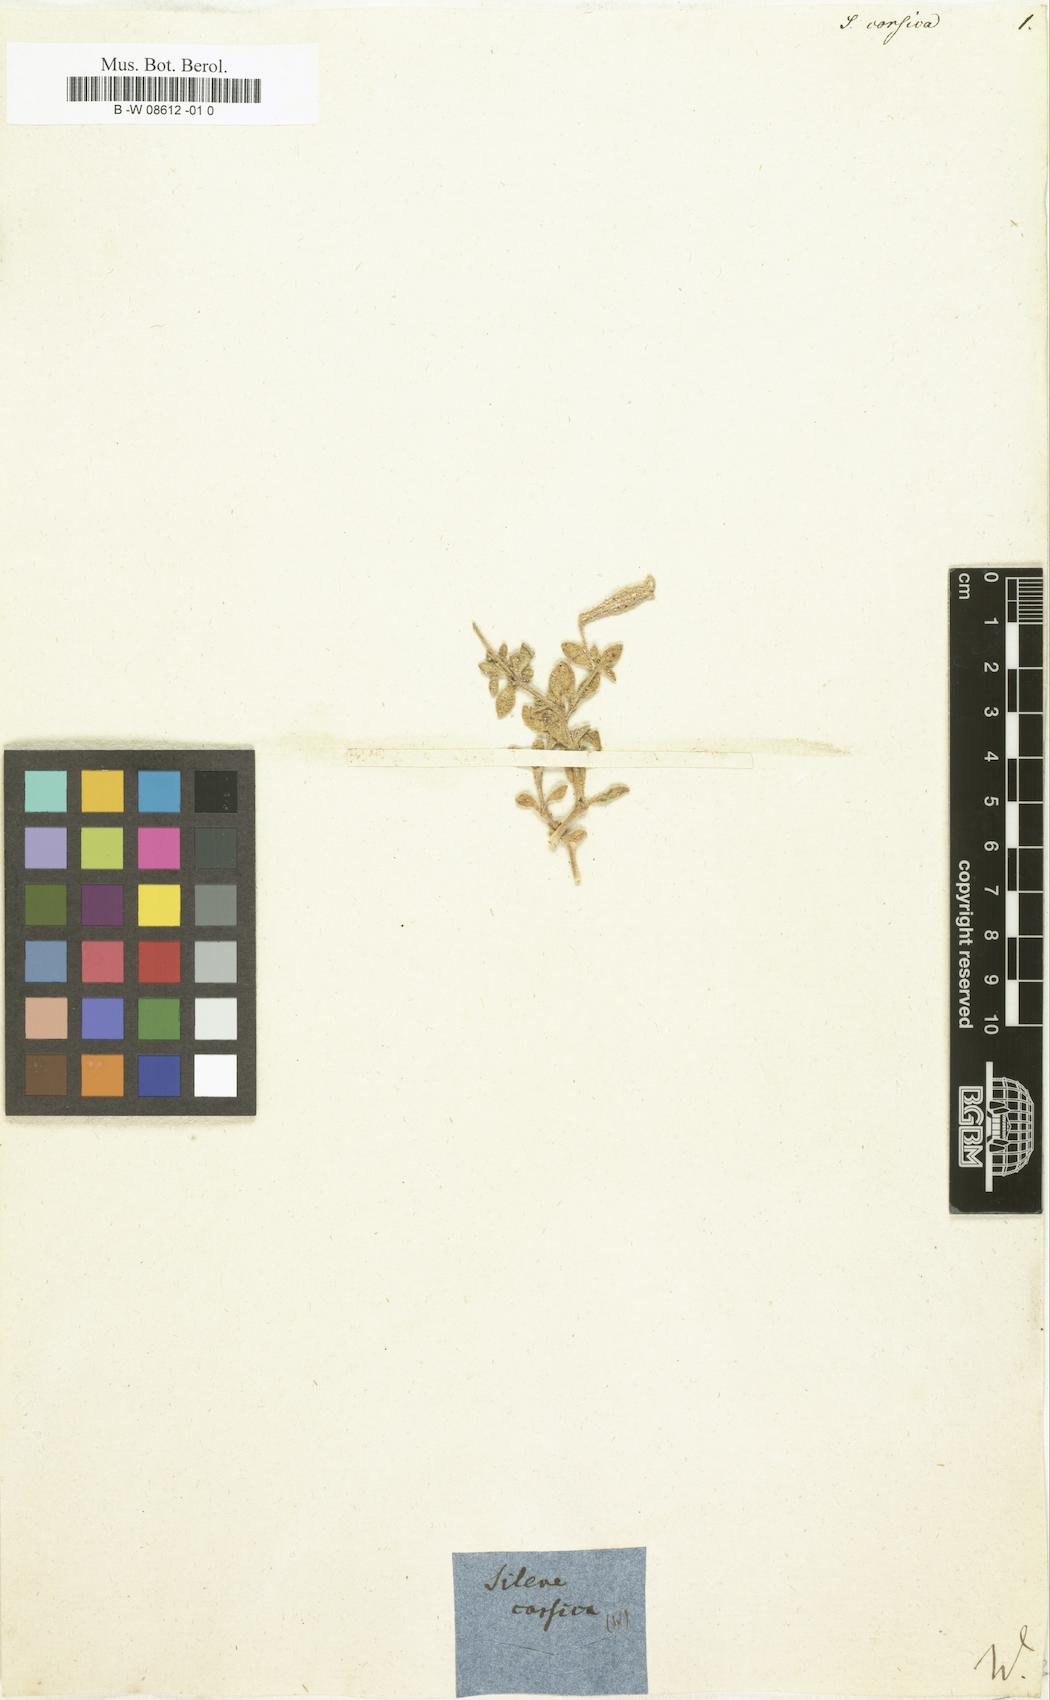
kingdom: Plantae
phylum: Tracheophyta
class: Magnoliopsida
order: Caryophyllales
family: Caryophyllaceae
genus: Silene
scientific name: Silene
